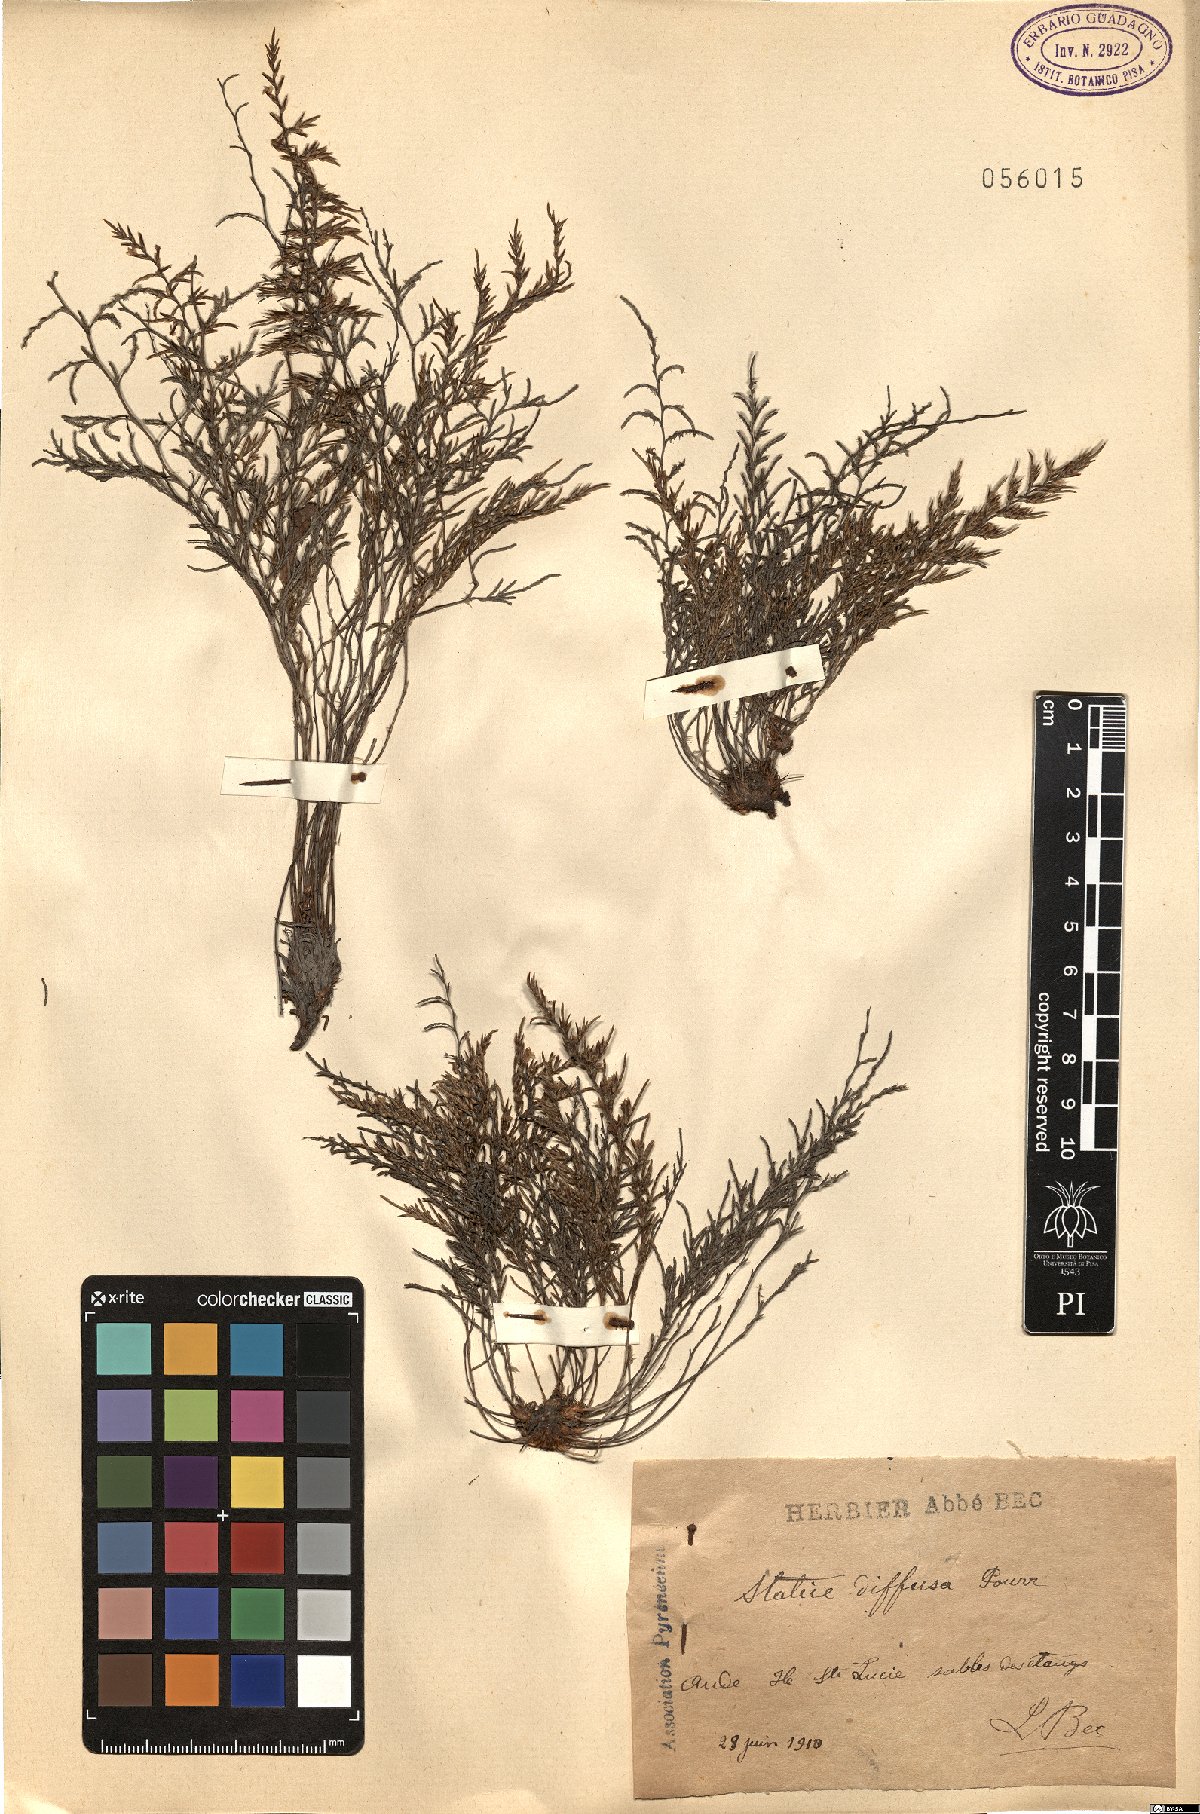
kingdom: Plantae
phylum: Tracheophyta
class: Magnoliopsida
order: Caryophyllales
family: Plumbaginaceae
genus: Limonium
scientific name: Limonium bellidifolium
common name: Matted sea-lavender
